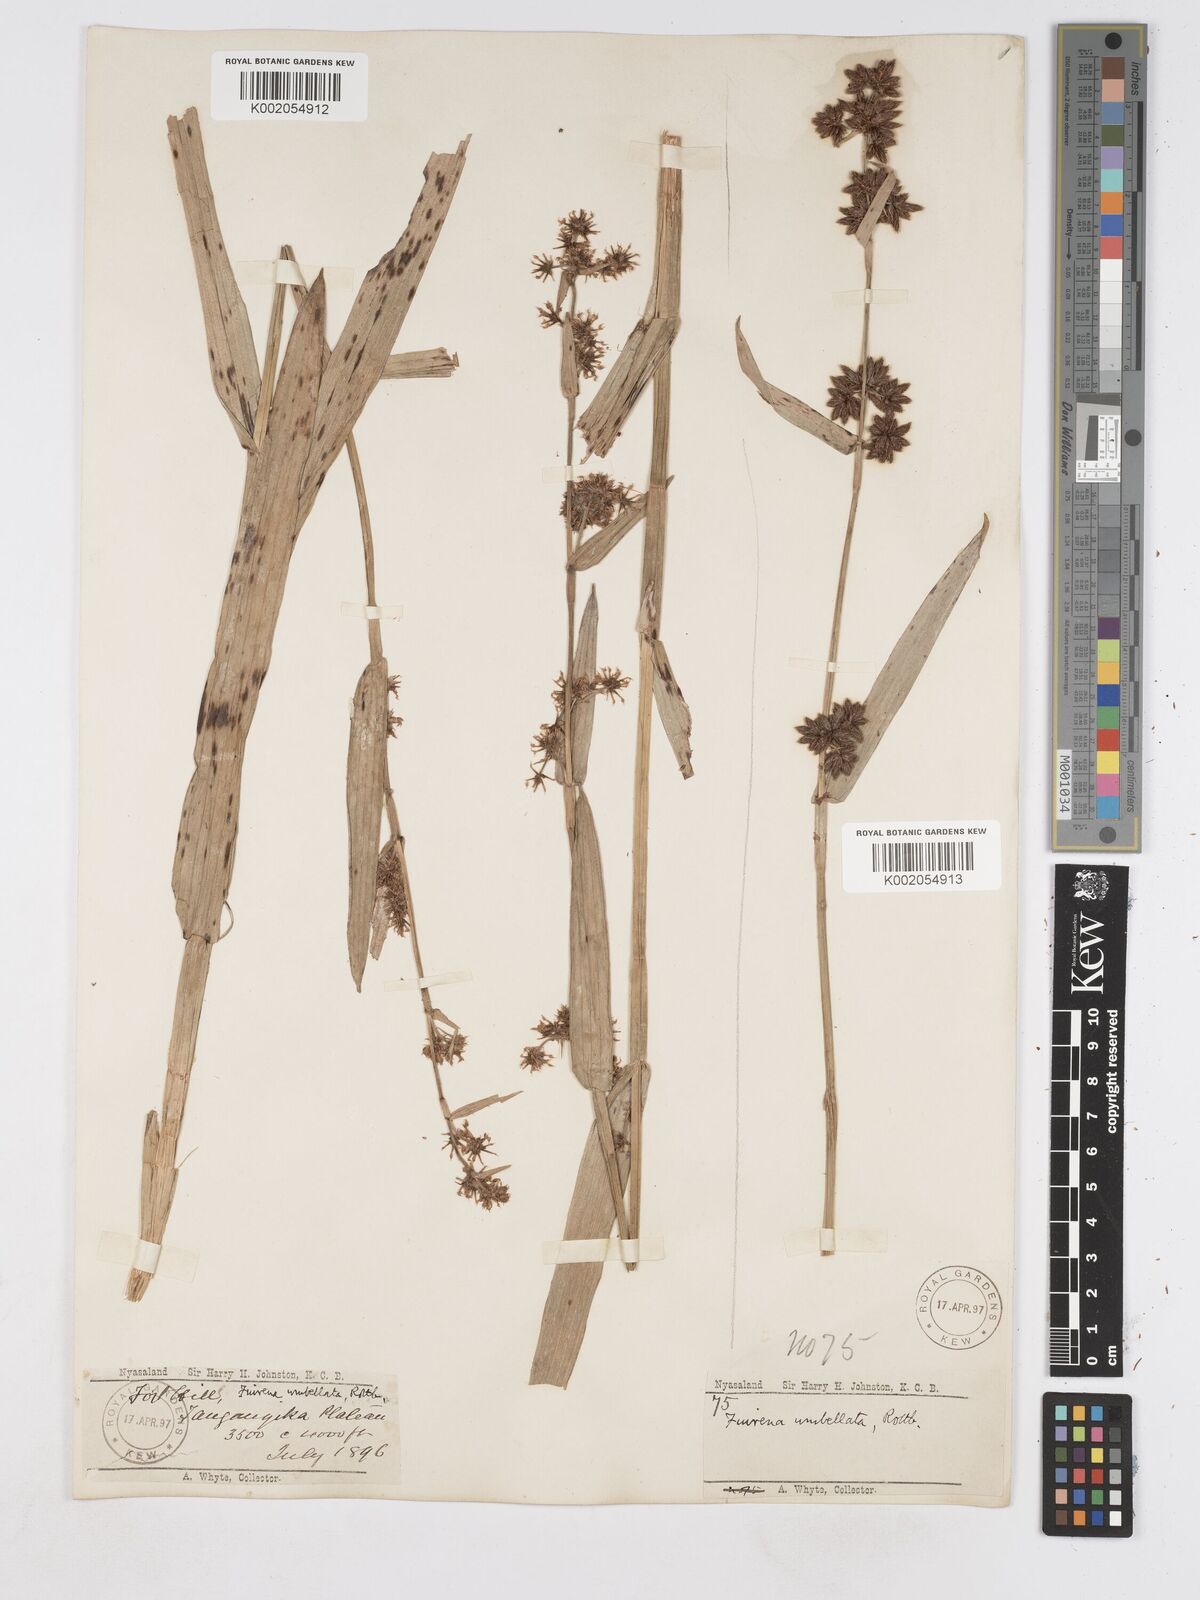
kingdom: Plantae
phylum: Tracheophyta
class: Liliopsida
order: Poales
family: Cyperaceae
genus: Fuirena
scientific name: Fuirena umbellata
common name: Yefen
